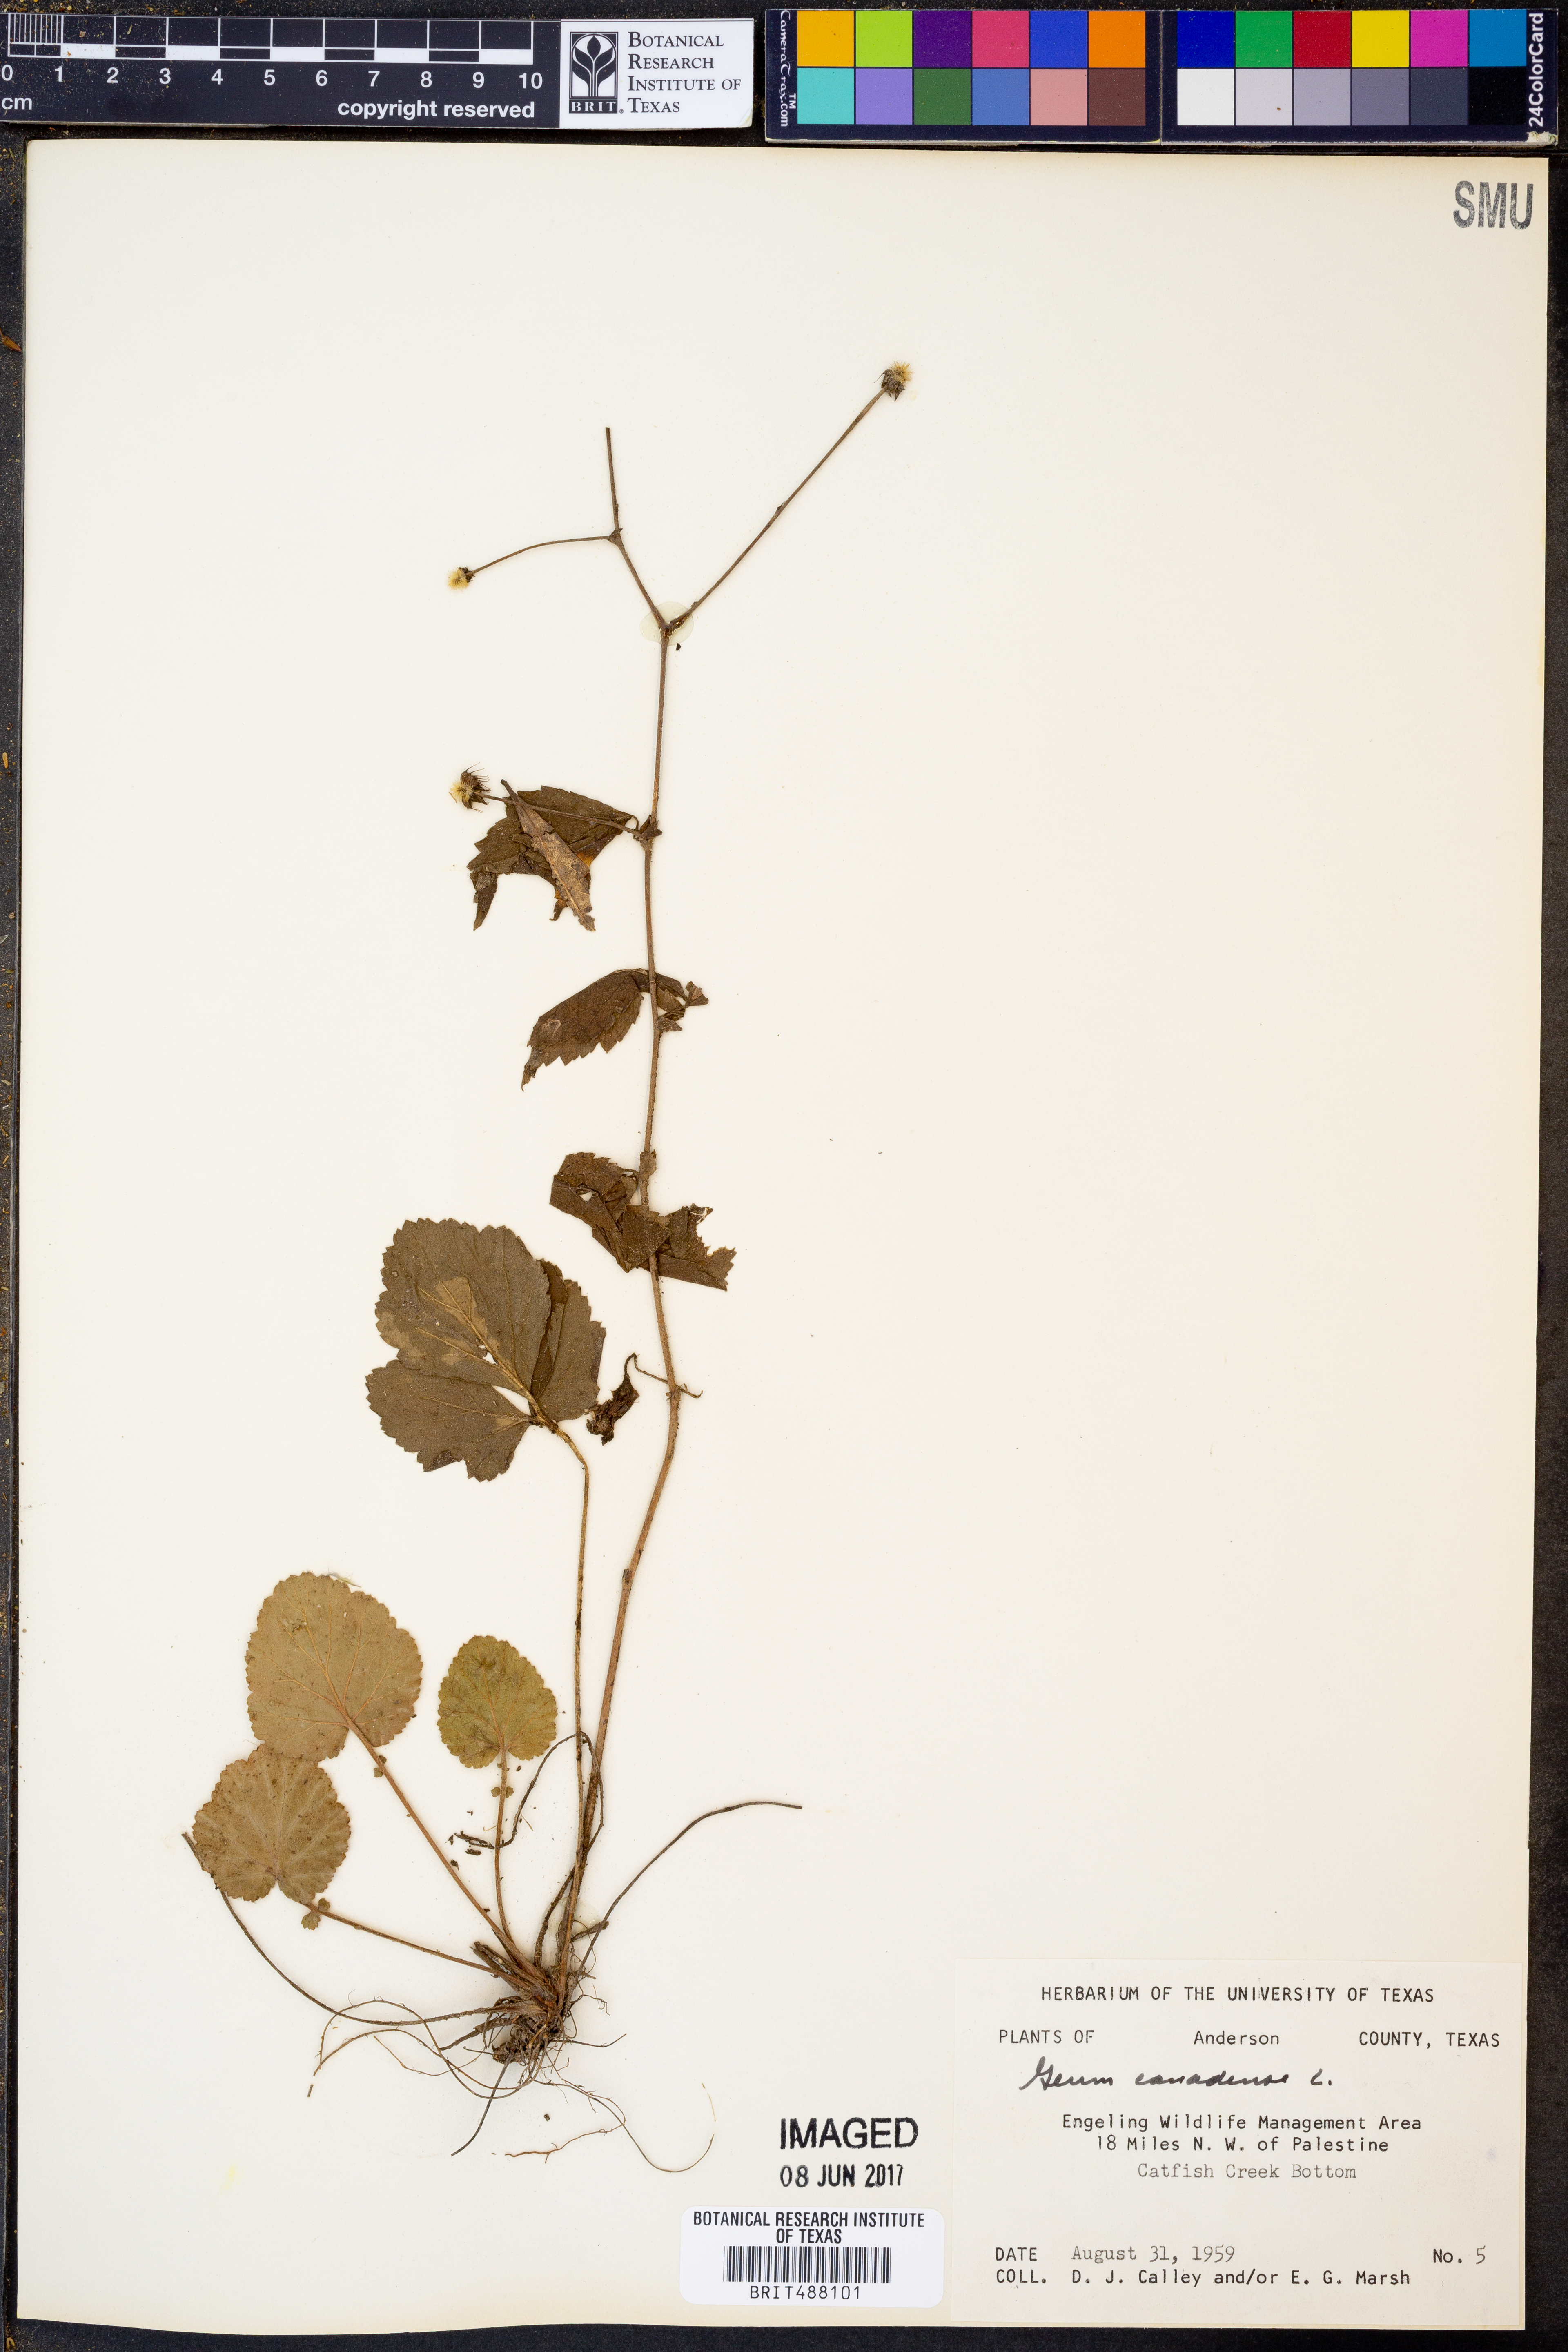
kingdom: Plantae
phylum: Tracheophyta
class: Magnoliopsida
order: Rosales
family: Rosaceae
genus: Geum
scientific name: Geum canadense
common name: White avens
